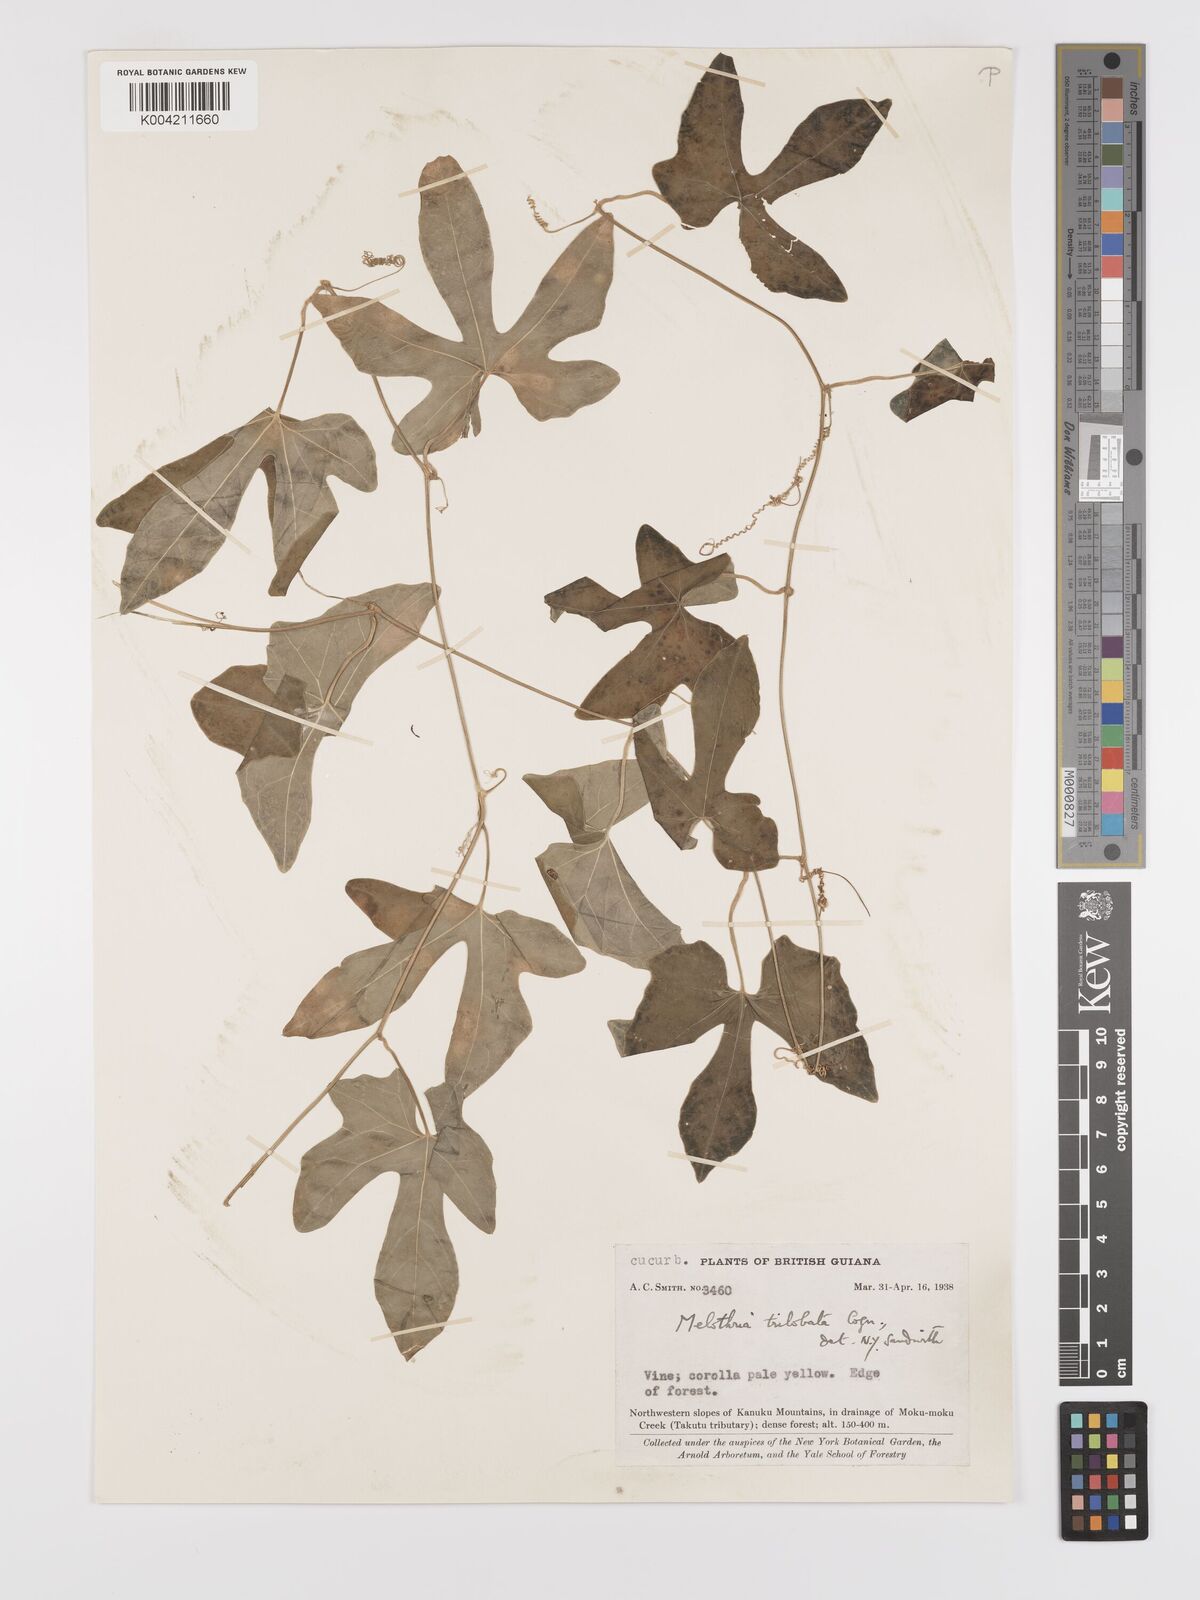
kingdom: Plantae
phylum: Tracheophyta
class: Magnoliopsida
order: Cucurbitales
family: Cucurbitaceae
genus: Melothria
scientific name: Melothria trilobata
